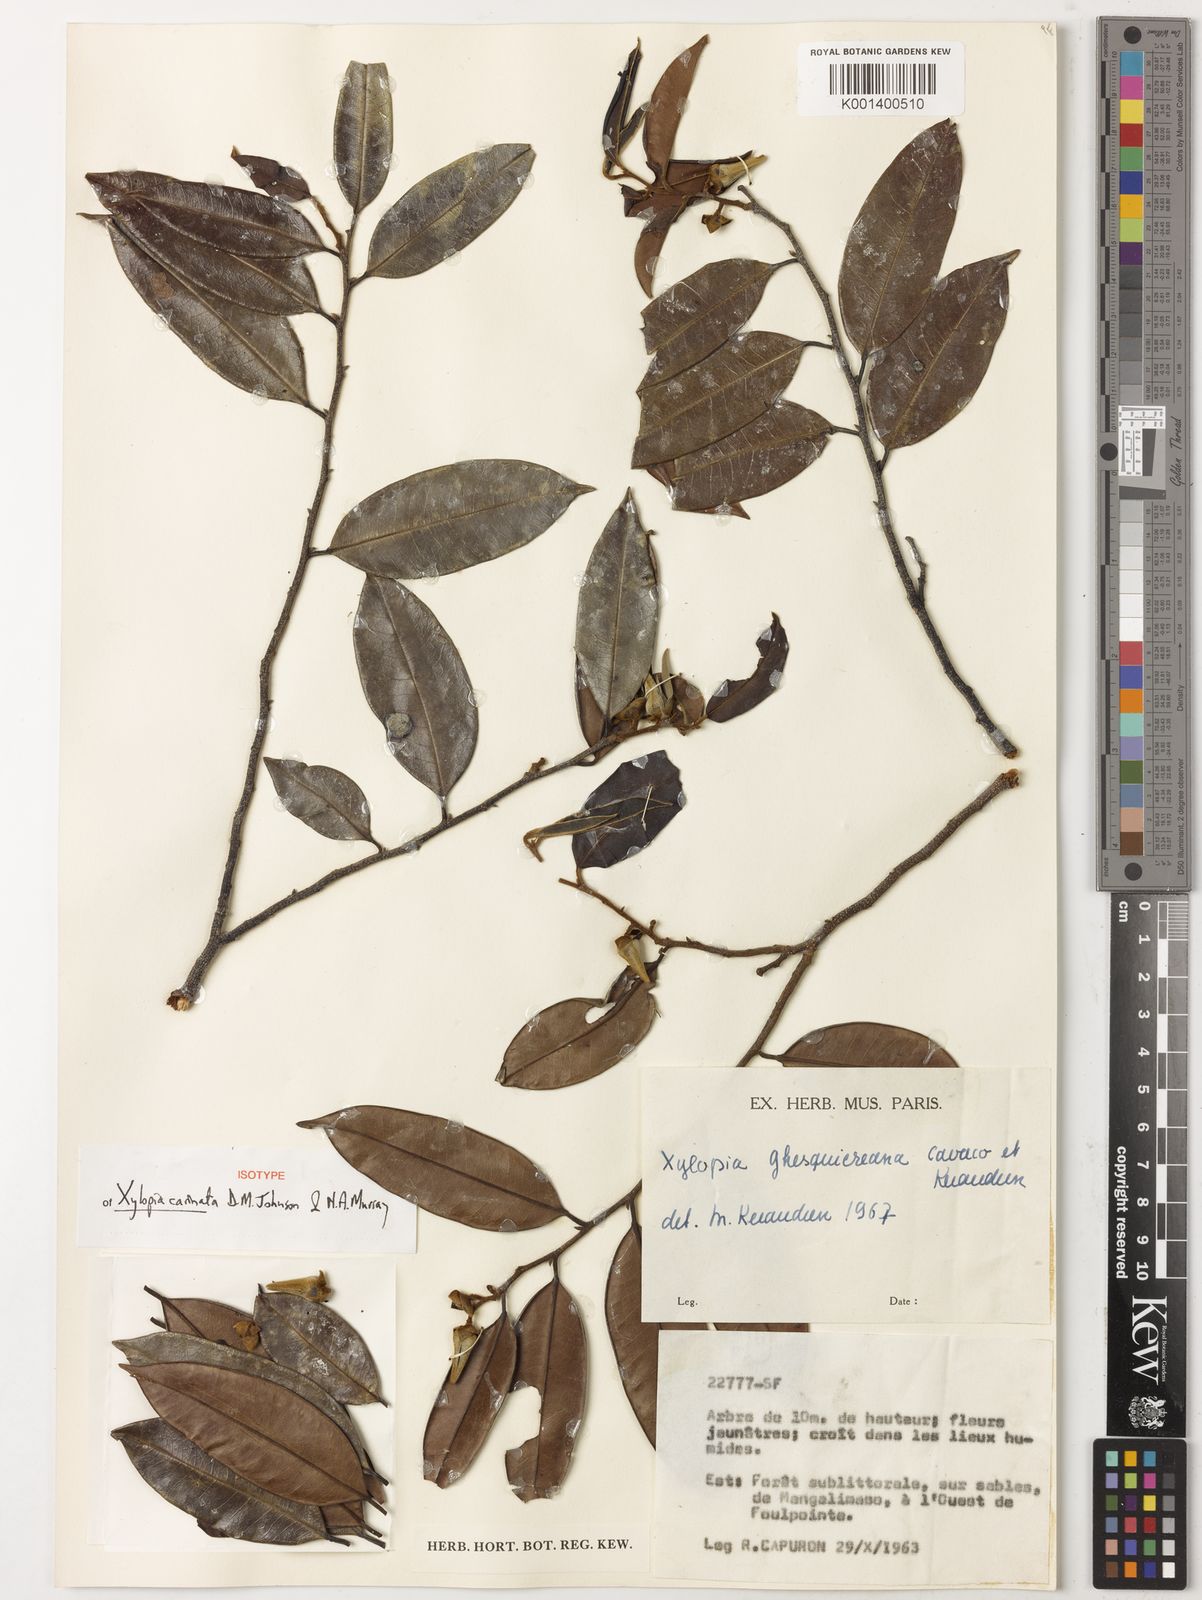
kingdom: Plantae
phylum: Tracheophyta
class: Magnoliopsida
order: Magnoliales
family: Annonaceae
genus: Xylopia
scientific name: Xylopia
